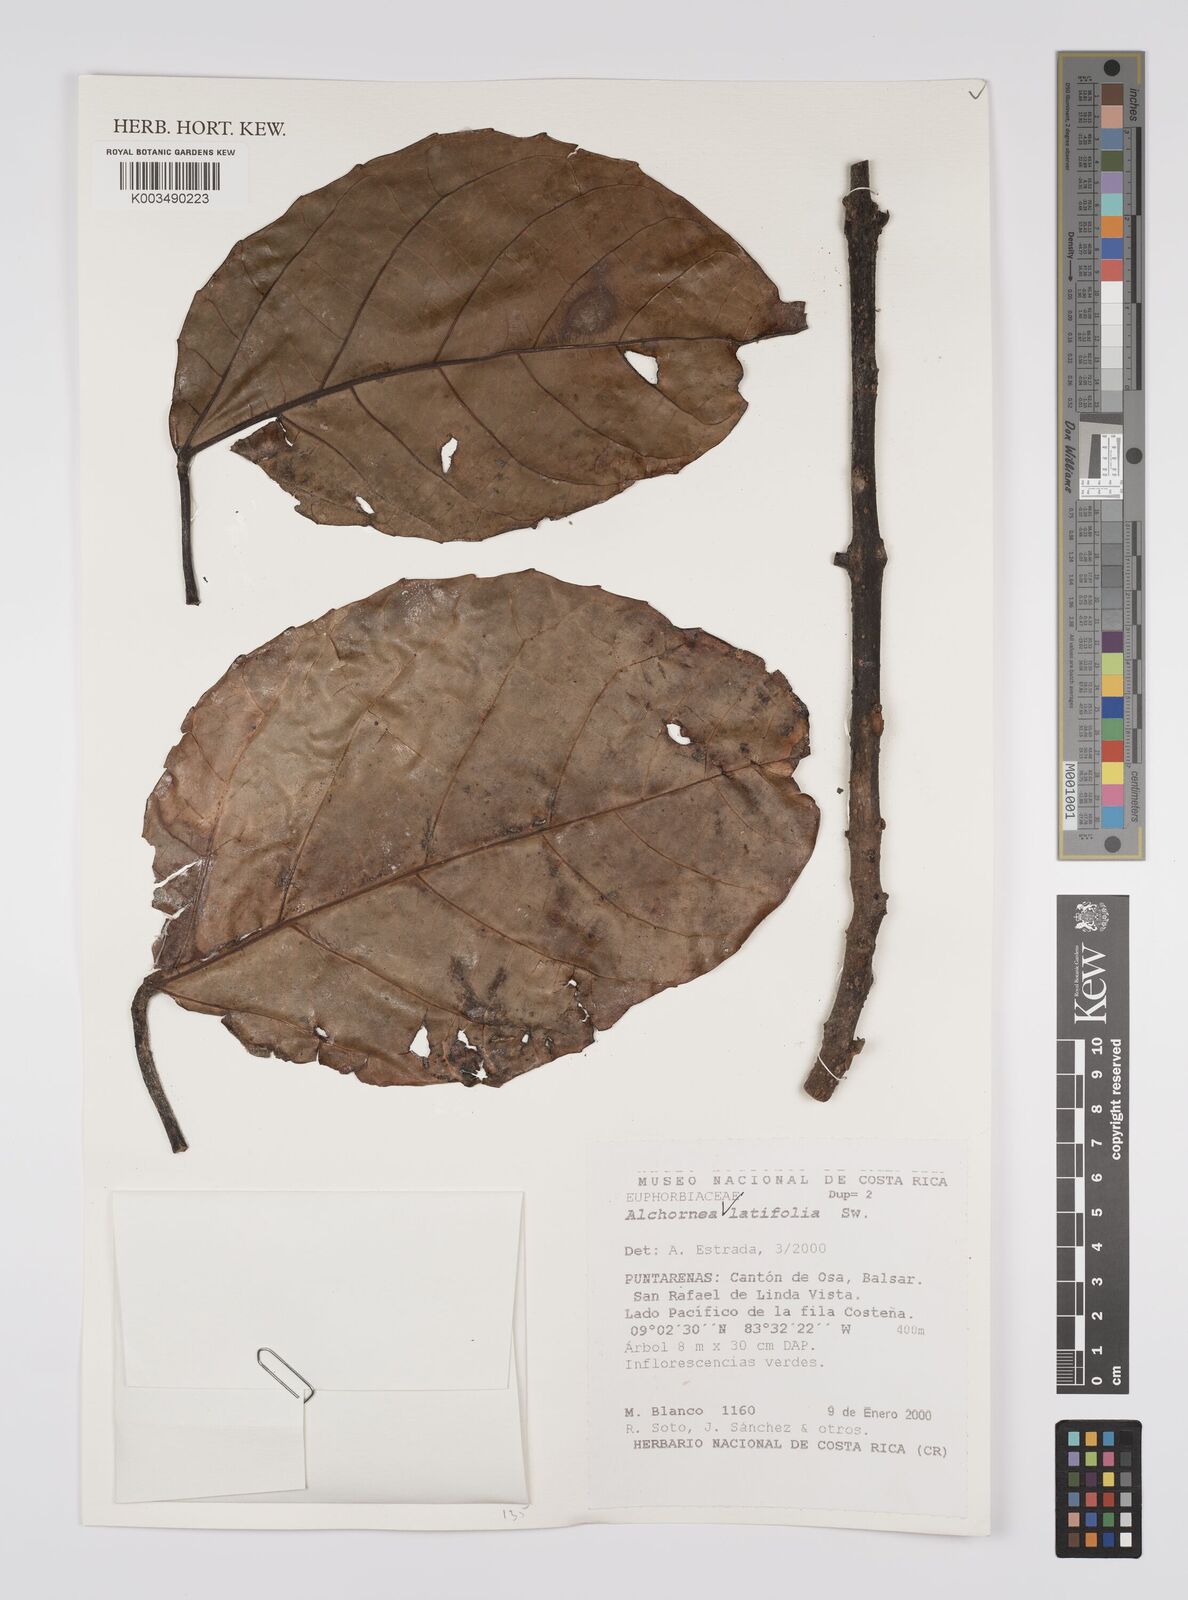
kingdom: Plantae
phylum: Tracheophyta
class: Magnoliopsida
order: Malpighiales
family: Euphorbiaceae
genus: Alchornea
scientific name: Alchornea latifolia
